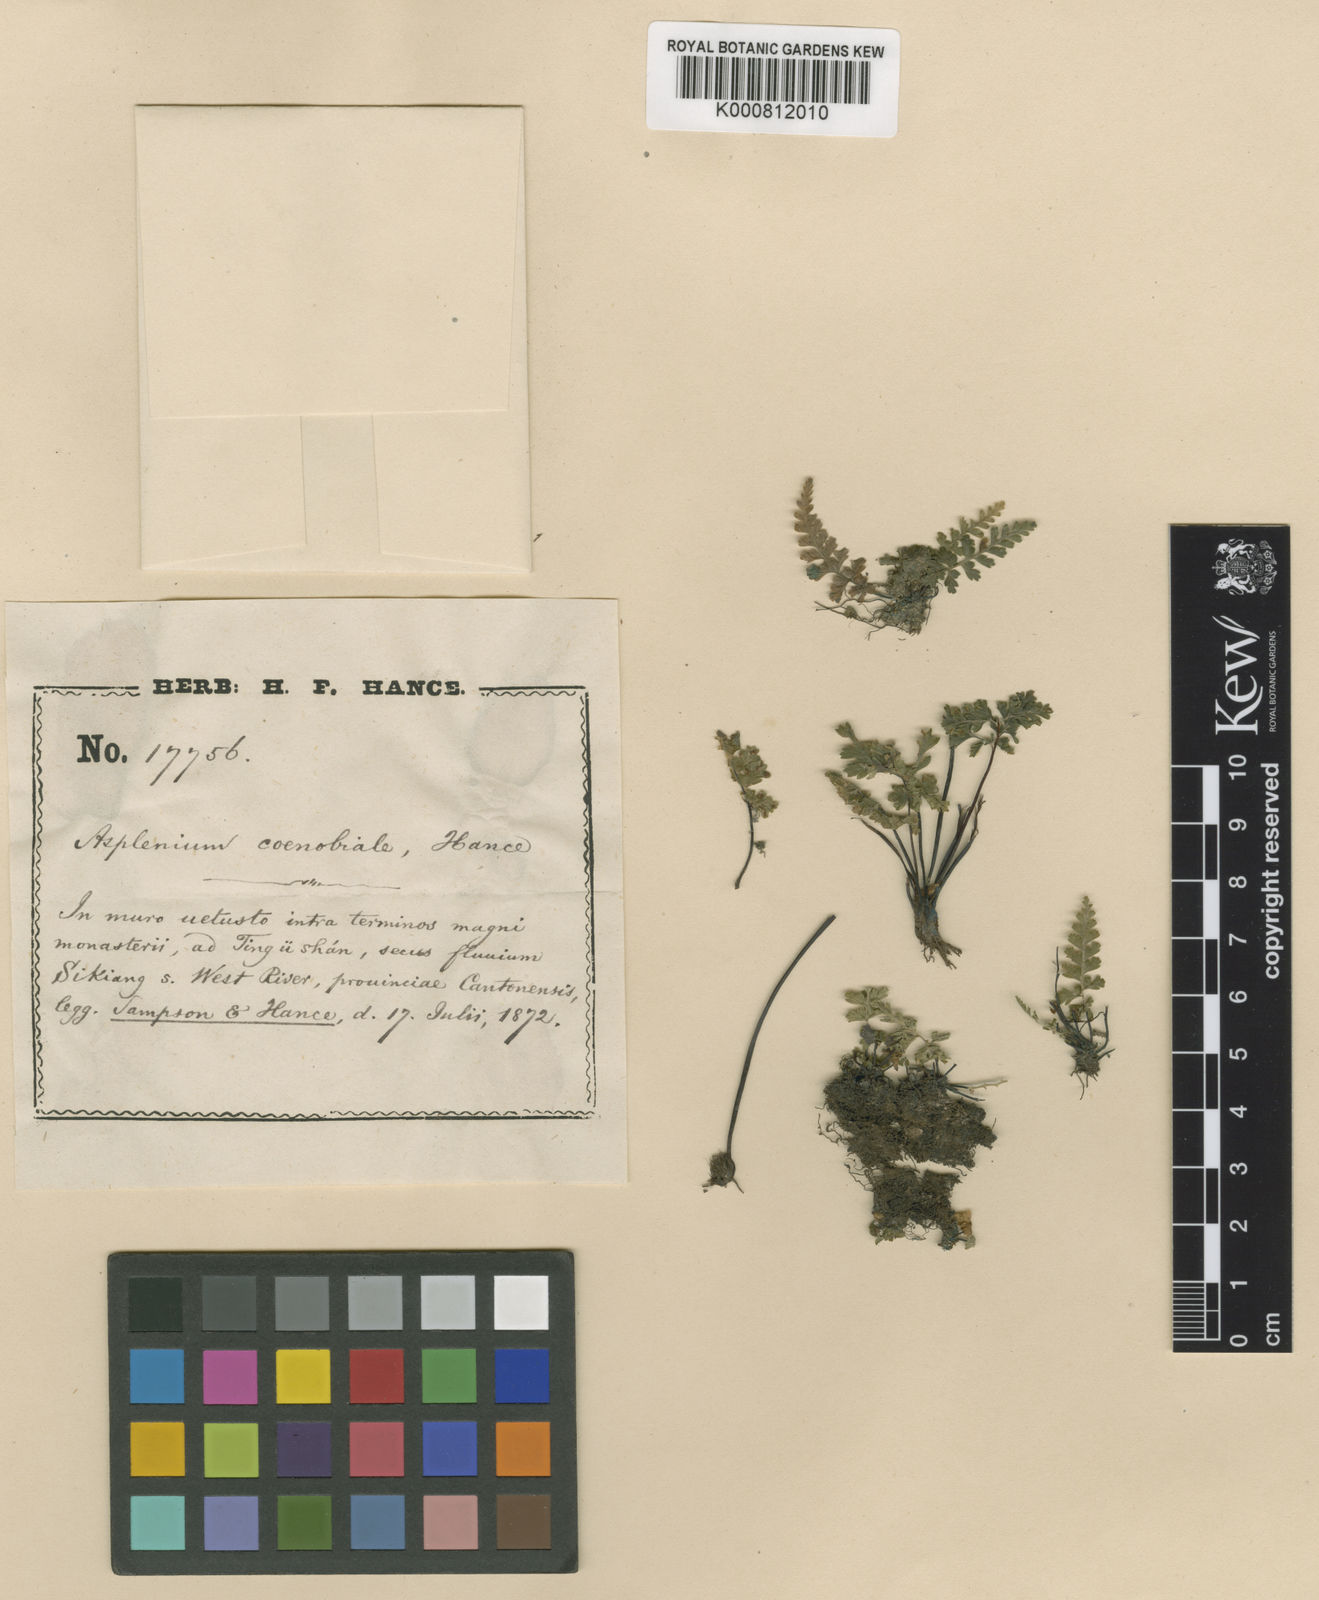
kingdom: Plantae
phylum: Tracheophyta
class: Polypodiopsida
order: Polypodiales
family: Aspleniaceae
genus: Asplenium
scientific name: Asplenium coenobiale
